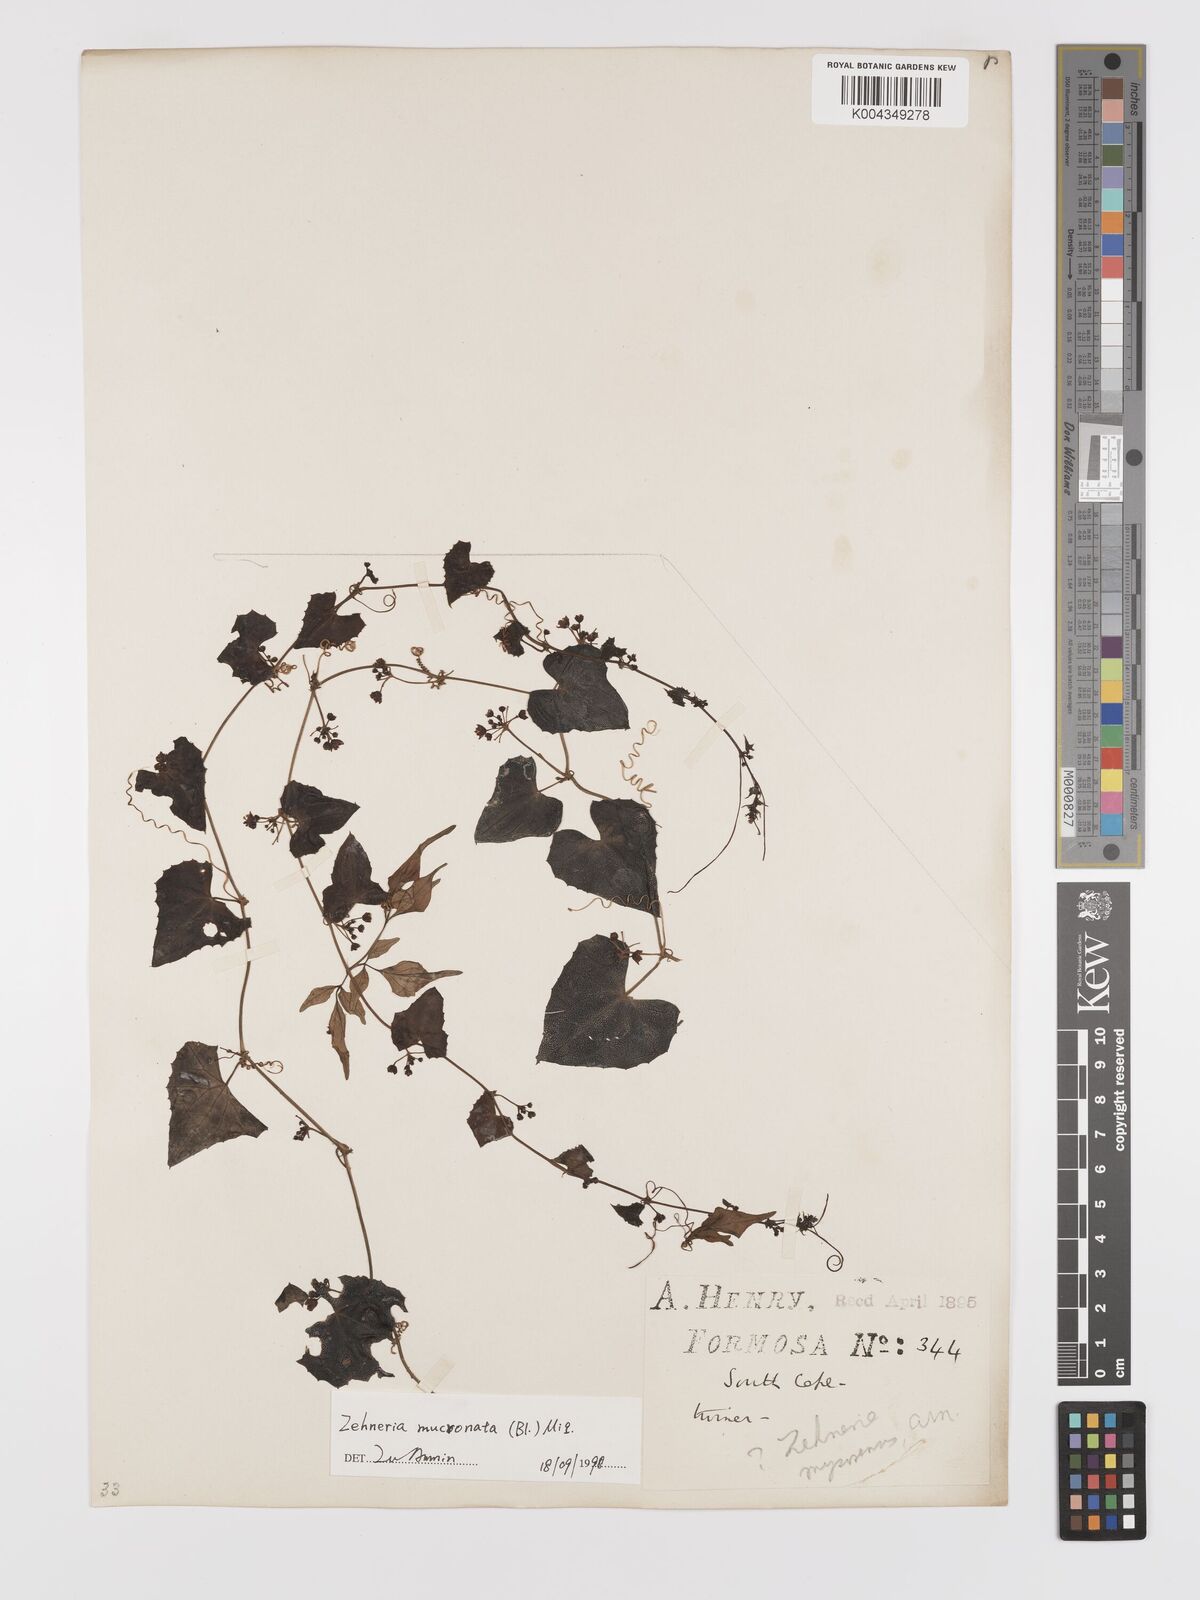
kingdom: Plantae
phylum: Tracheophyta
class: Magnoliopsida
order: Cucurbitales
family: Cucurbitaceae
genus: Zehneria
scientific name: Zehneria mucronata
